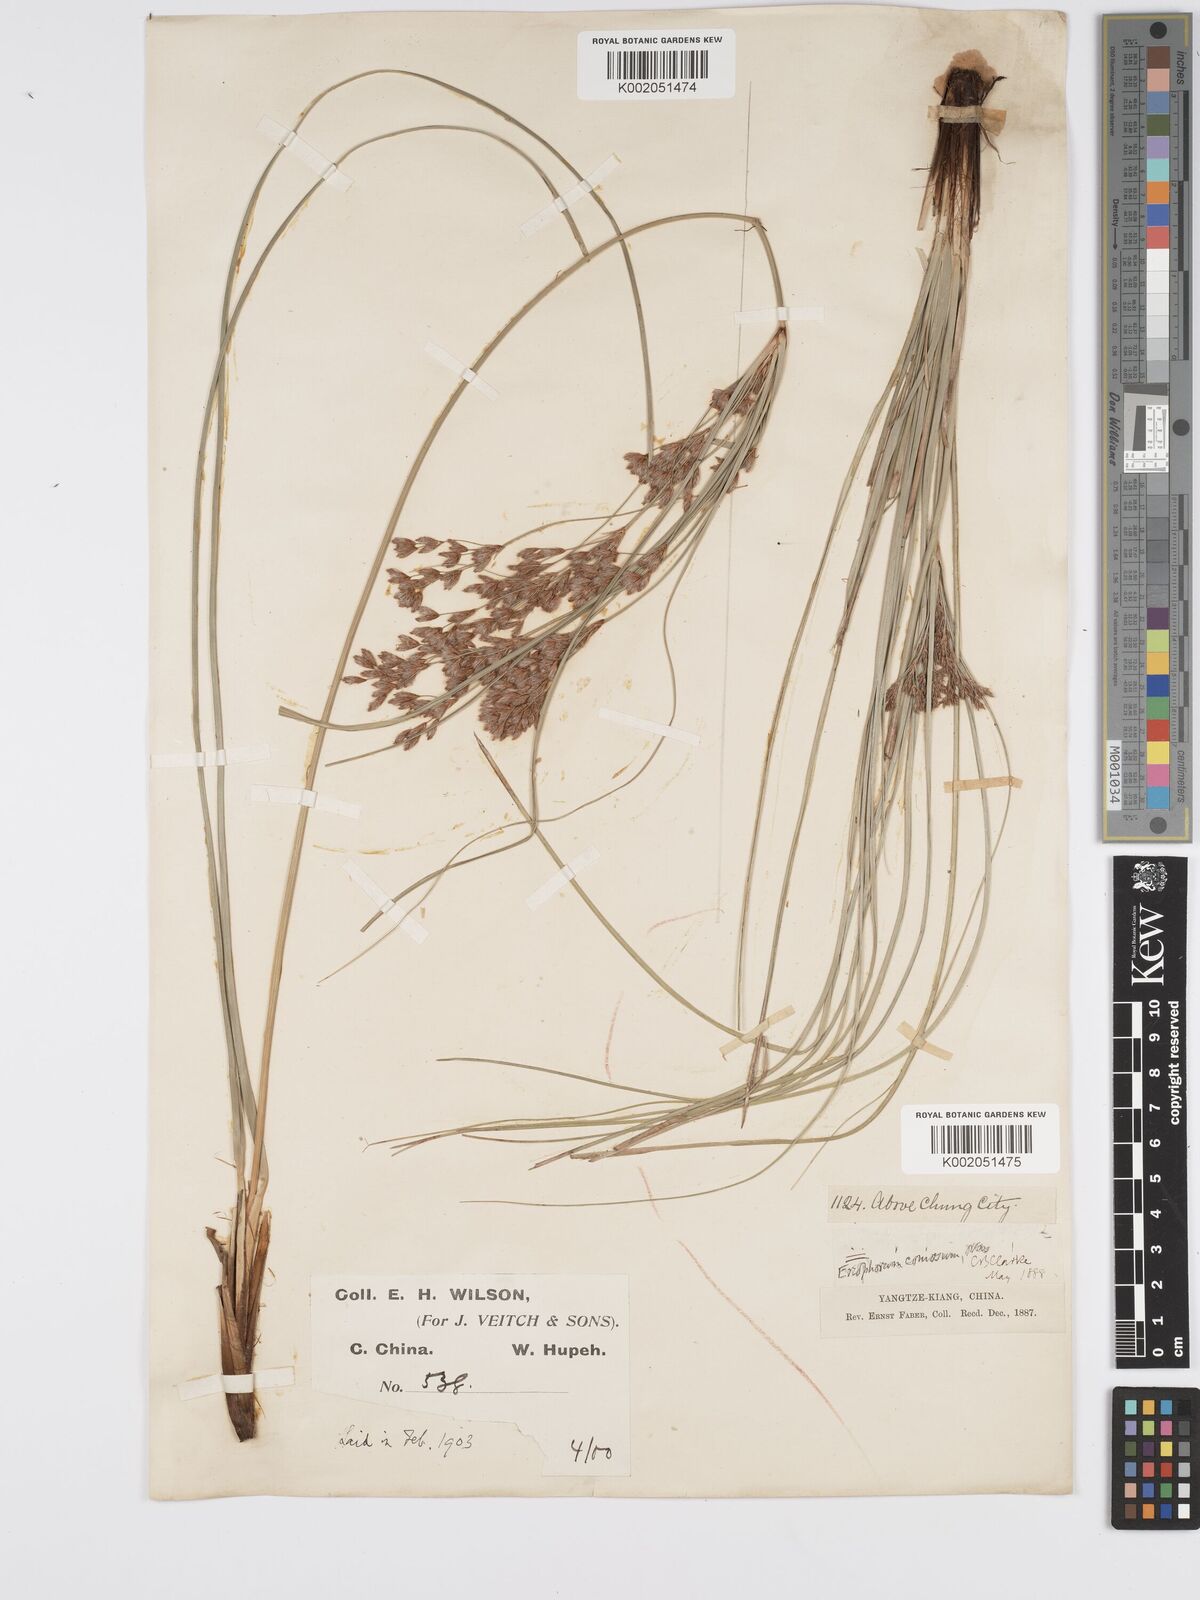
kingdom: Plantae
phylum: Tracheophyta
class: Liliopsida
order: Poales
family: Cyperaceae
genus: Erioscirpus
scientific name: Erioscirpus comosus
